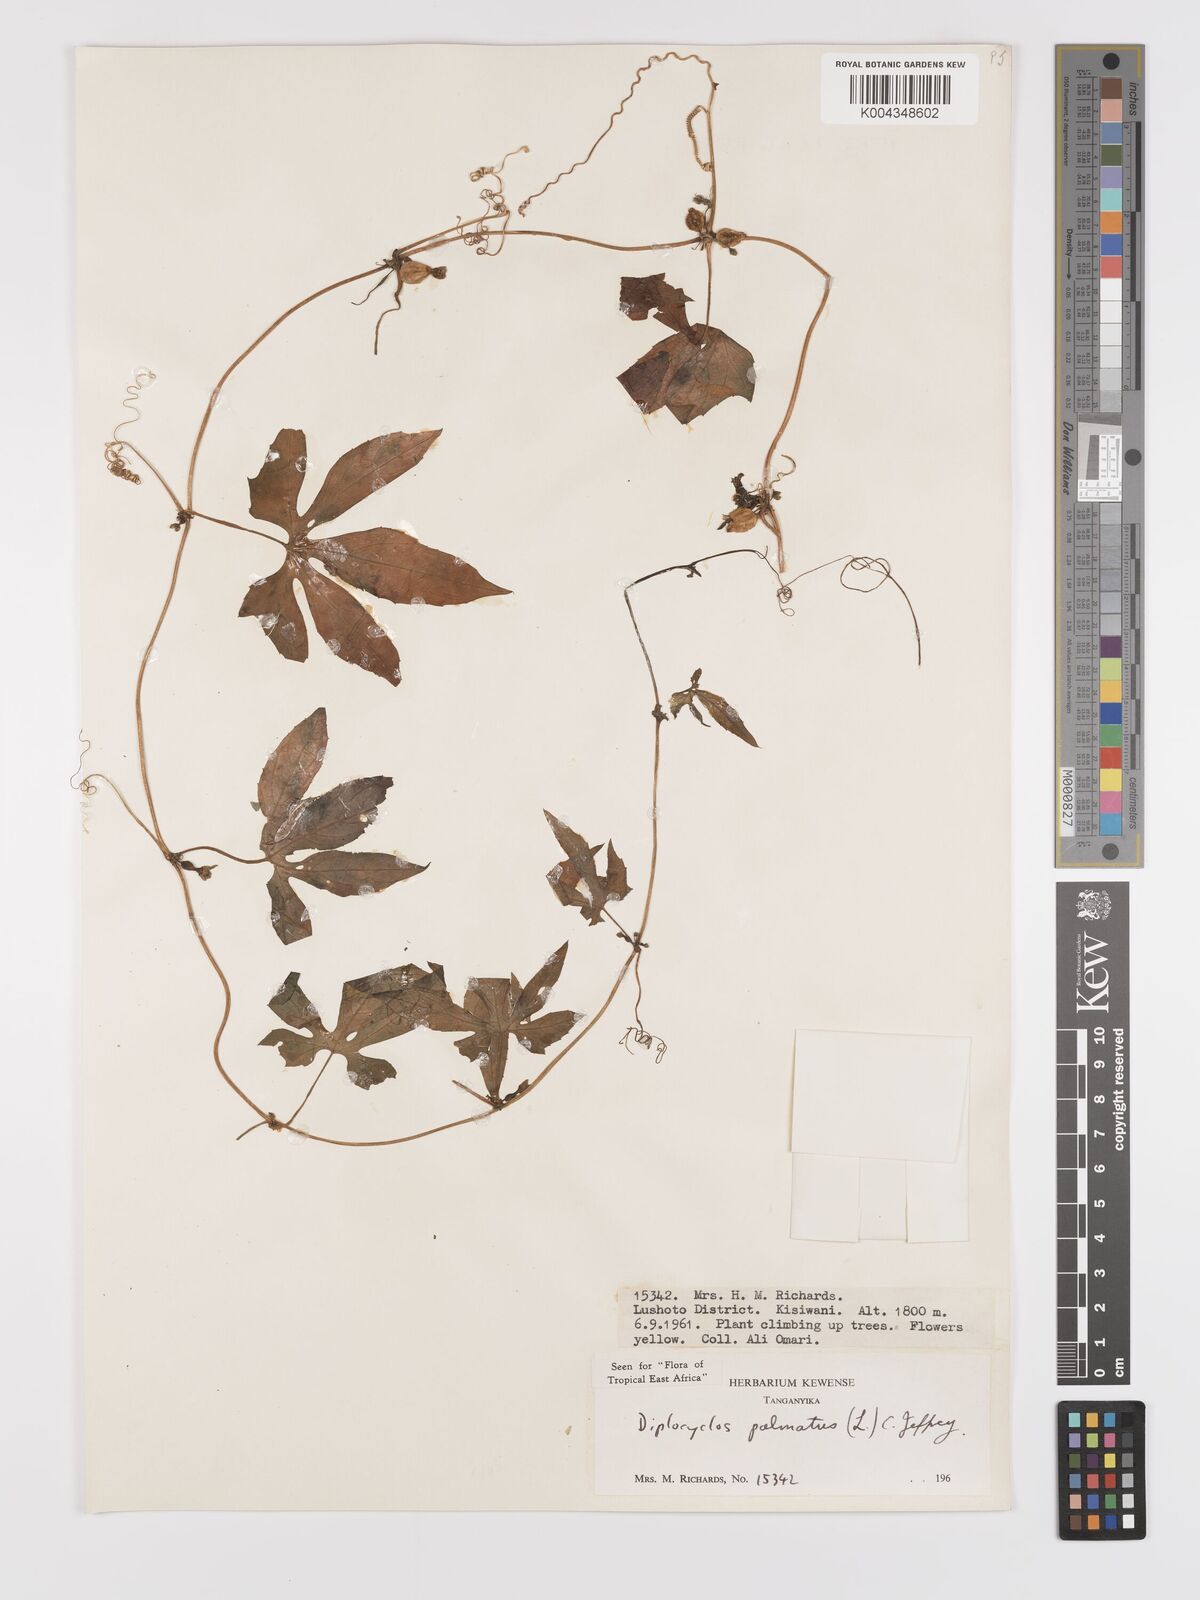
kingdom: Plantae
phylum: Tracheophyta
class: Magnoliopsida
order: Cucurbitales
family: Cucurbitaceae
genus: Diplocyclos
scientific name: Diplocyclos palmatus
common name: Striped-cucumber
